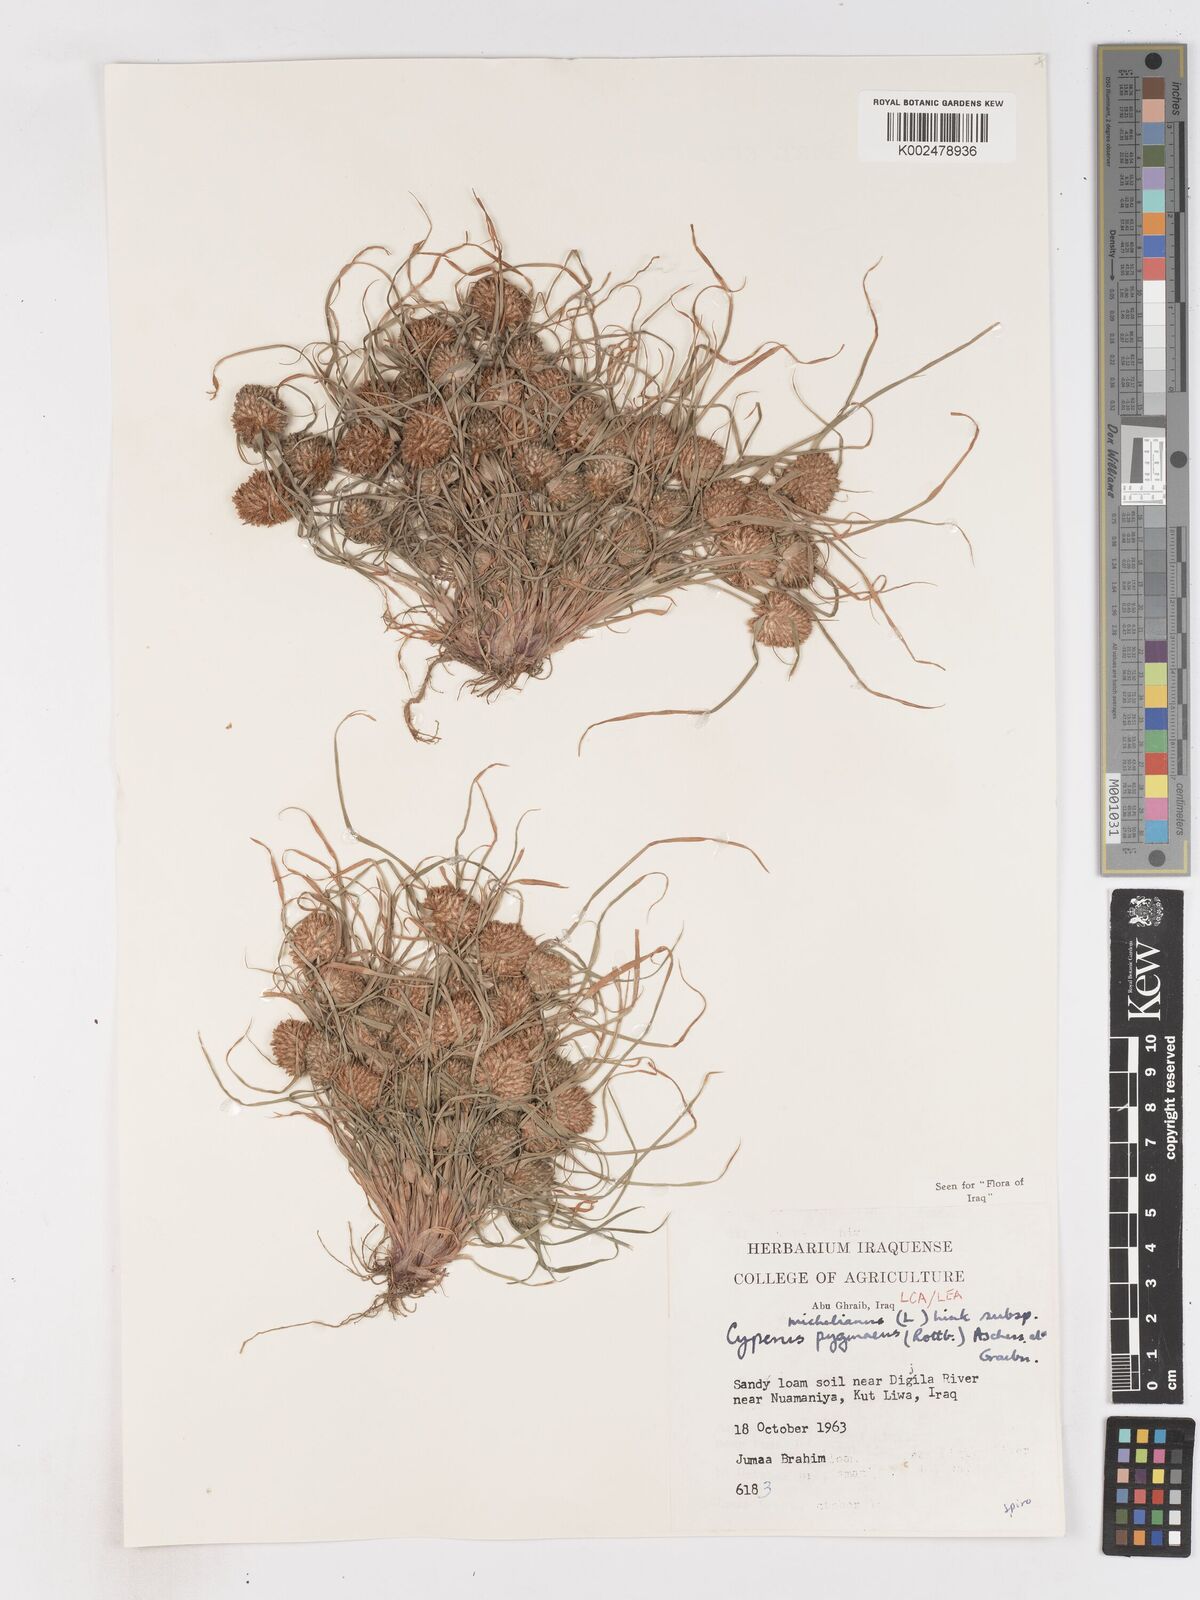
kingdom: Plantae
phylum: Tracheophyta
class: Liliopsida
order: Poales
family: Cyperaceae
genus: Cyperus
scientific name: Cyperus michelianus
